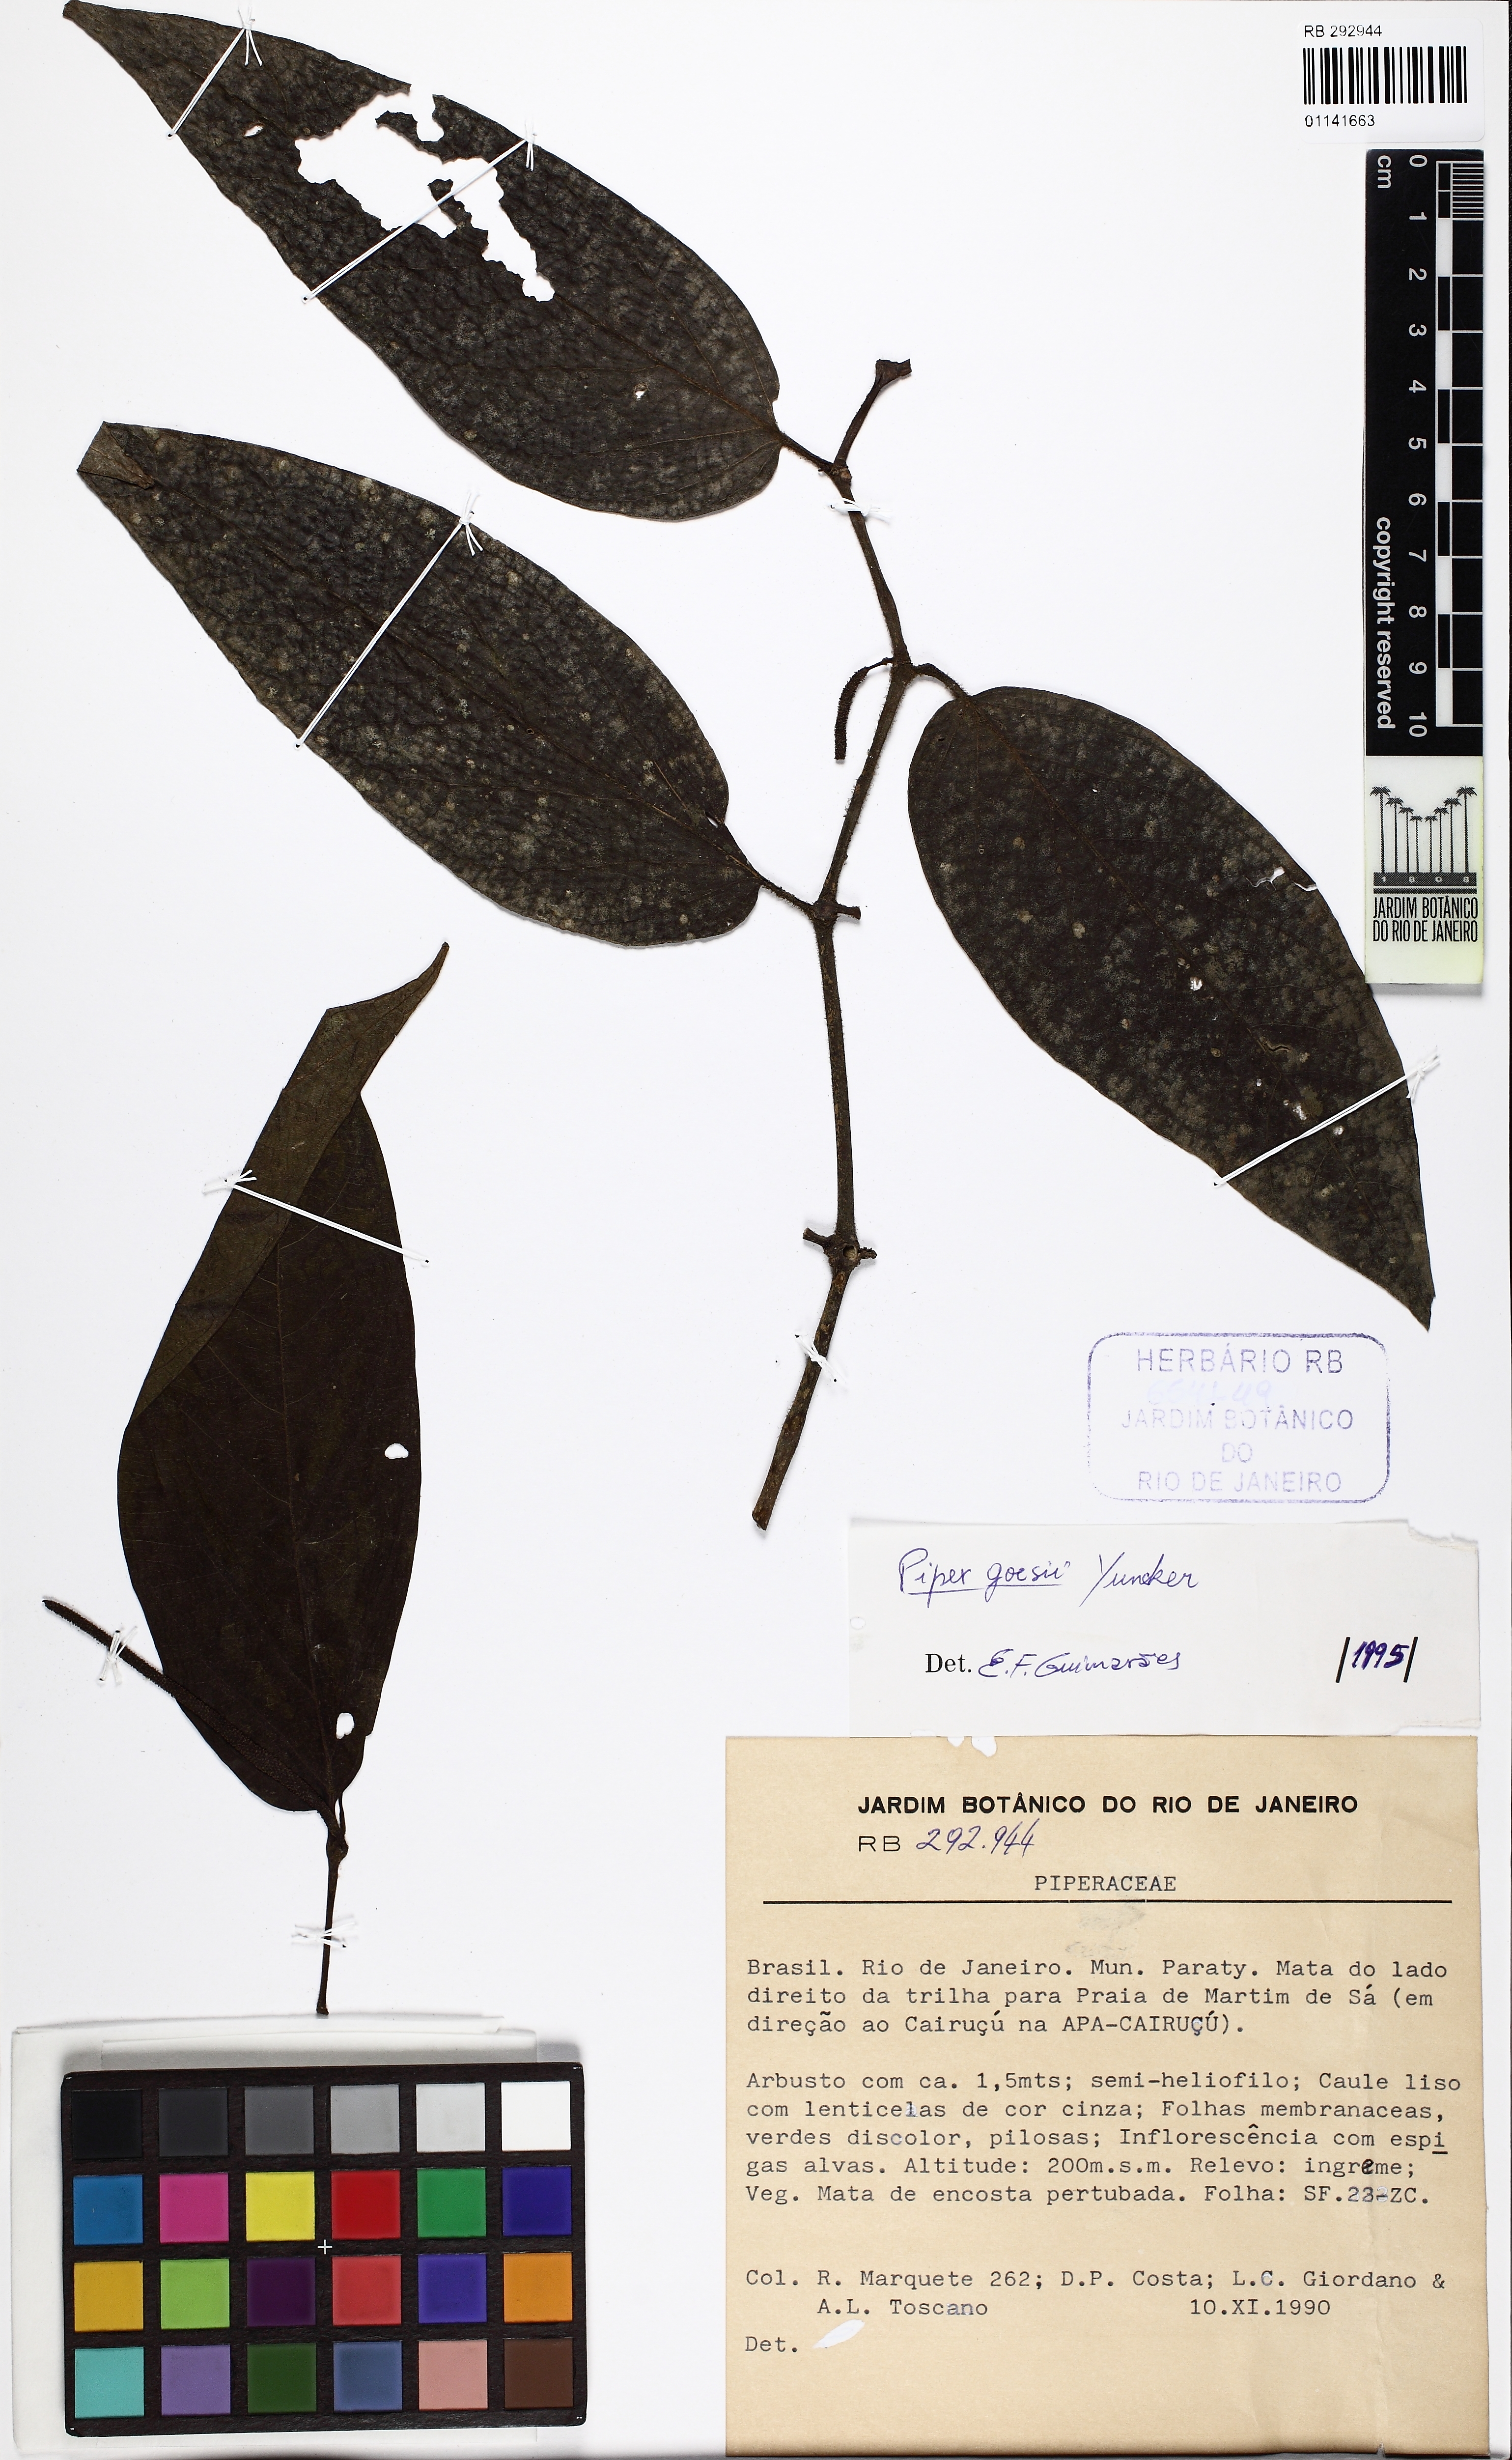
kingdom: Plantae
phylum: Tracheophyta
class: Magnoliopsida
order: Piperales
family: Piperaceae
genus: Piper
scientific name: Piper goesii
